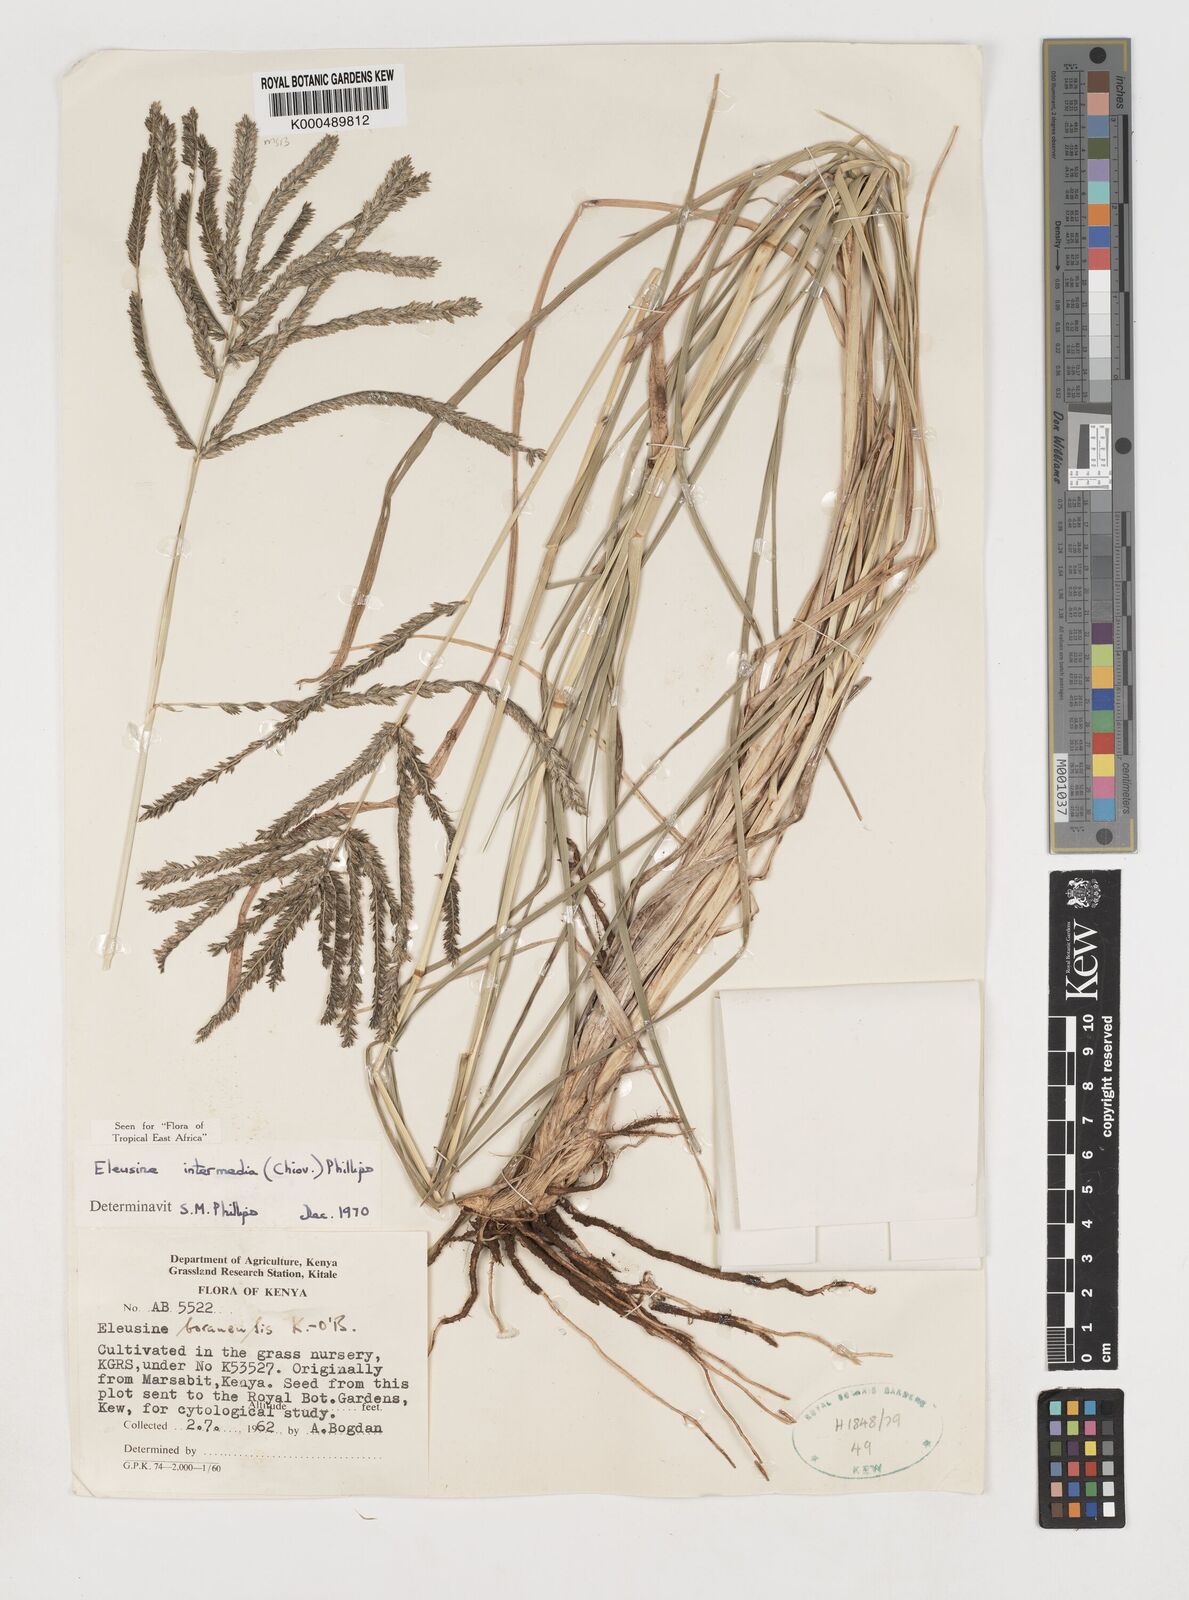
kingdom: Plantae
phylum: Tracheophyta
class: Liliopsida
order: Poales
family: Poaceae
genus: Eleusine
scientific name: Eleusine intermedia
